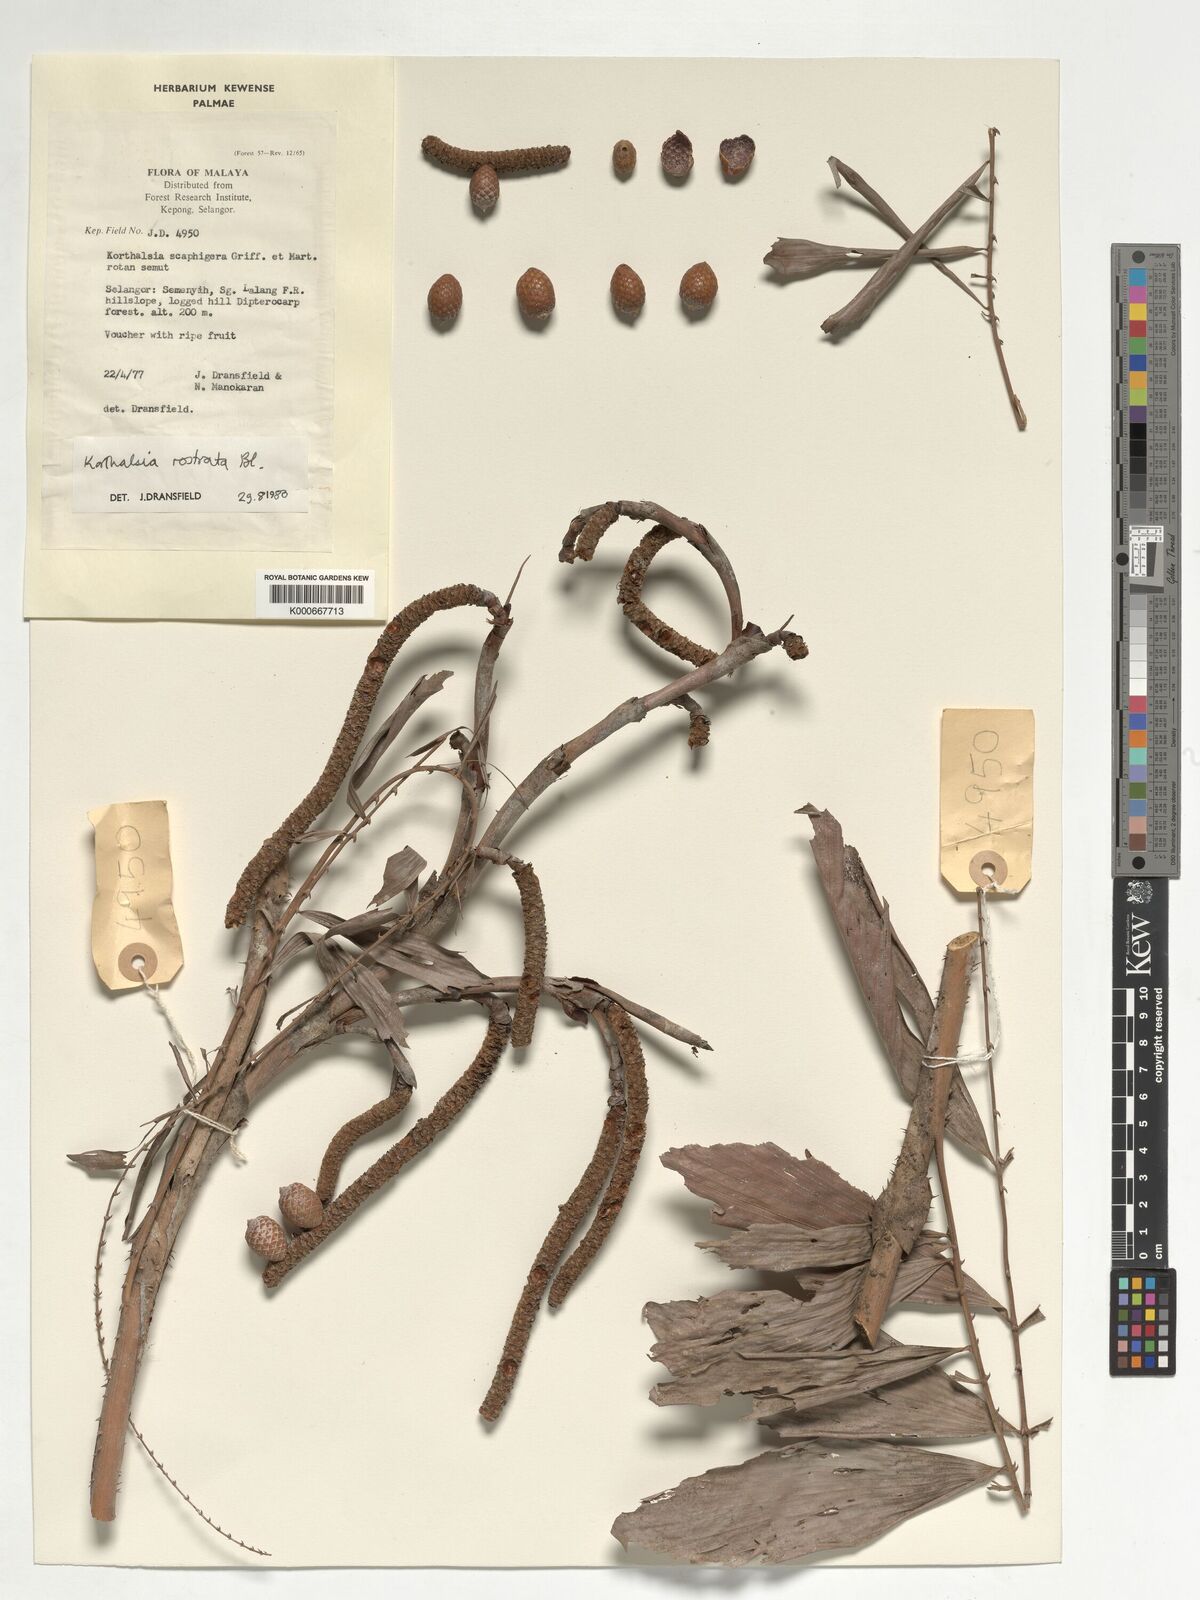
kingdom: Plantae
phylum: Tracheophyta
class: Liliopsida
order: Arecales
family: Arecaceae
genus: Korthalsia
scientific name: Korthalsia rostrata
